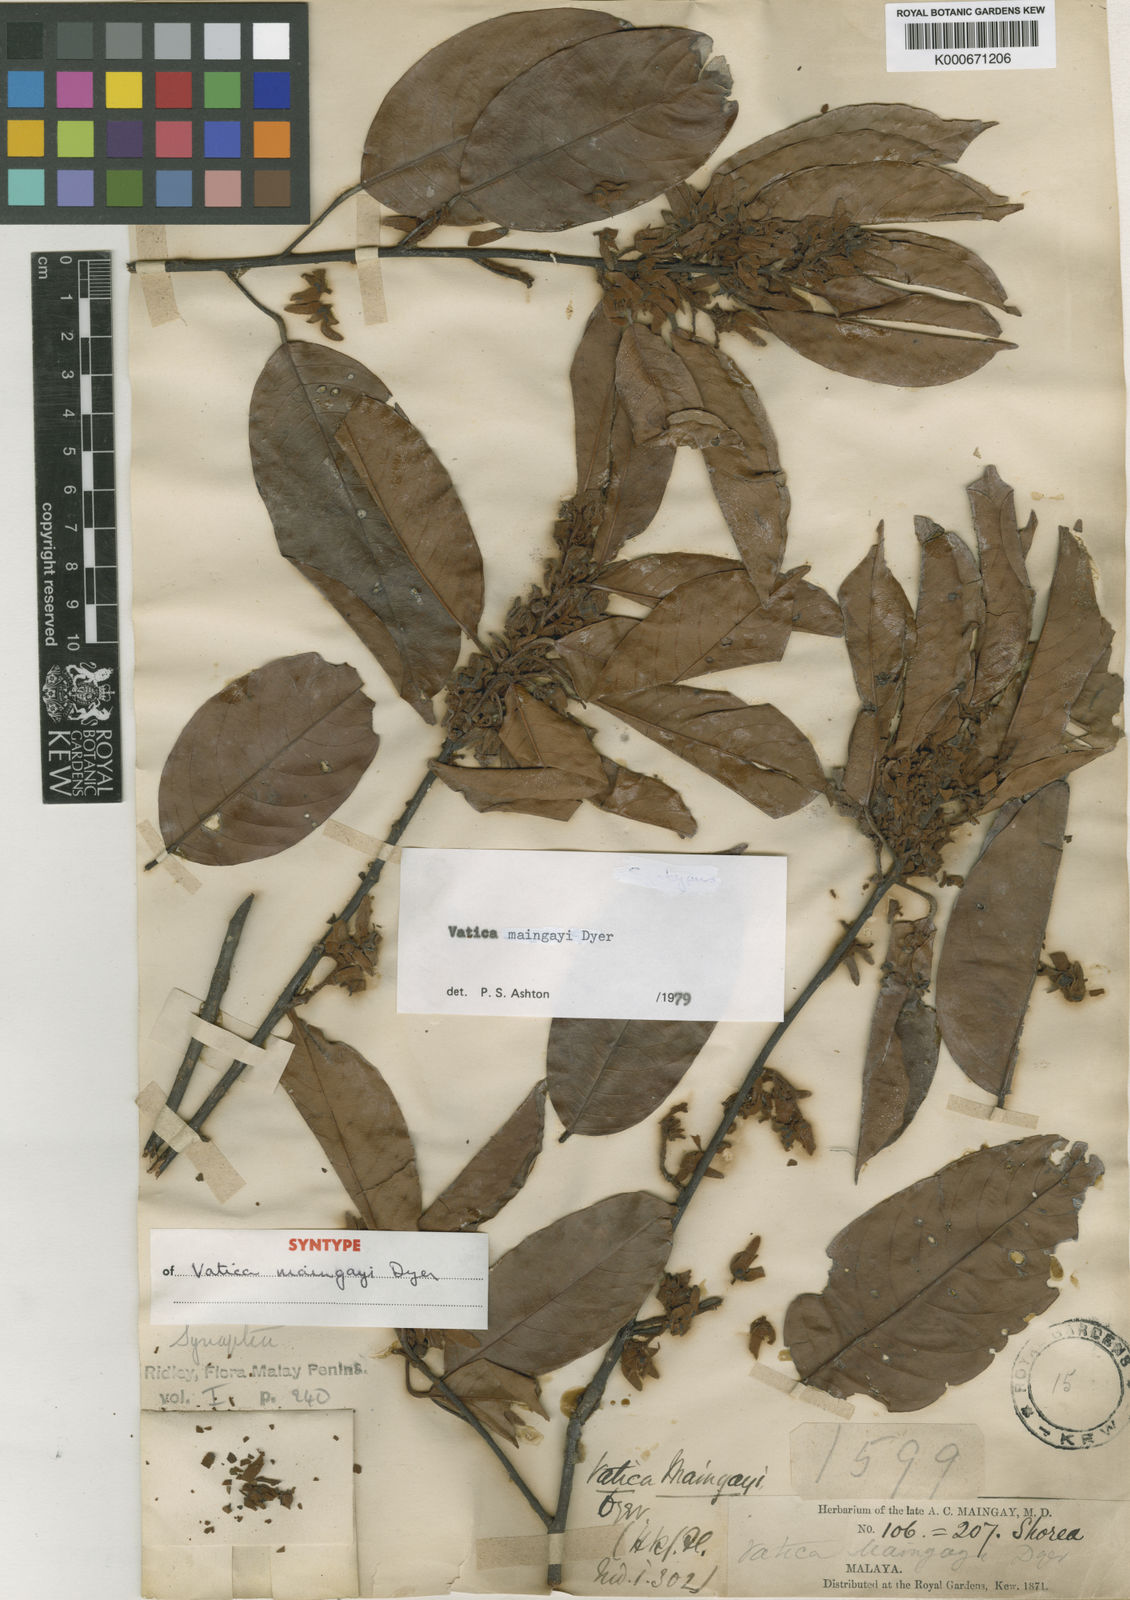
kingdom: Plantae
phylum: Tracheophyta
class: Magnoliopsida
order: Malvales
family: Dipterocarpaceae
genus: Vatica
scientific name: Vatica maingayi
